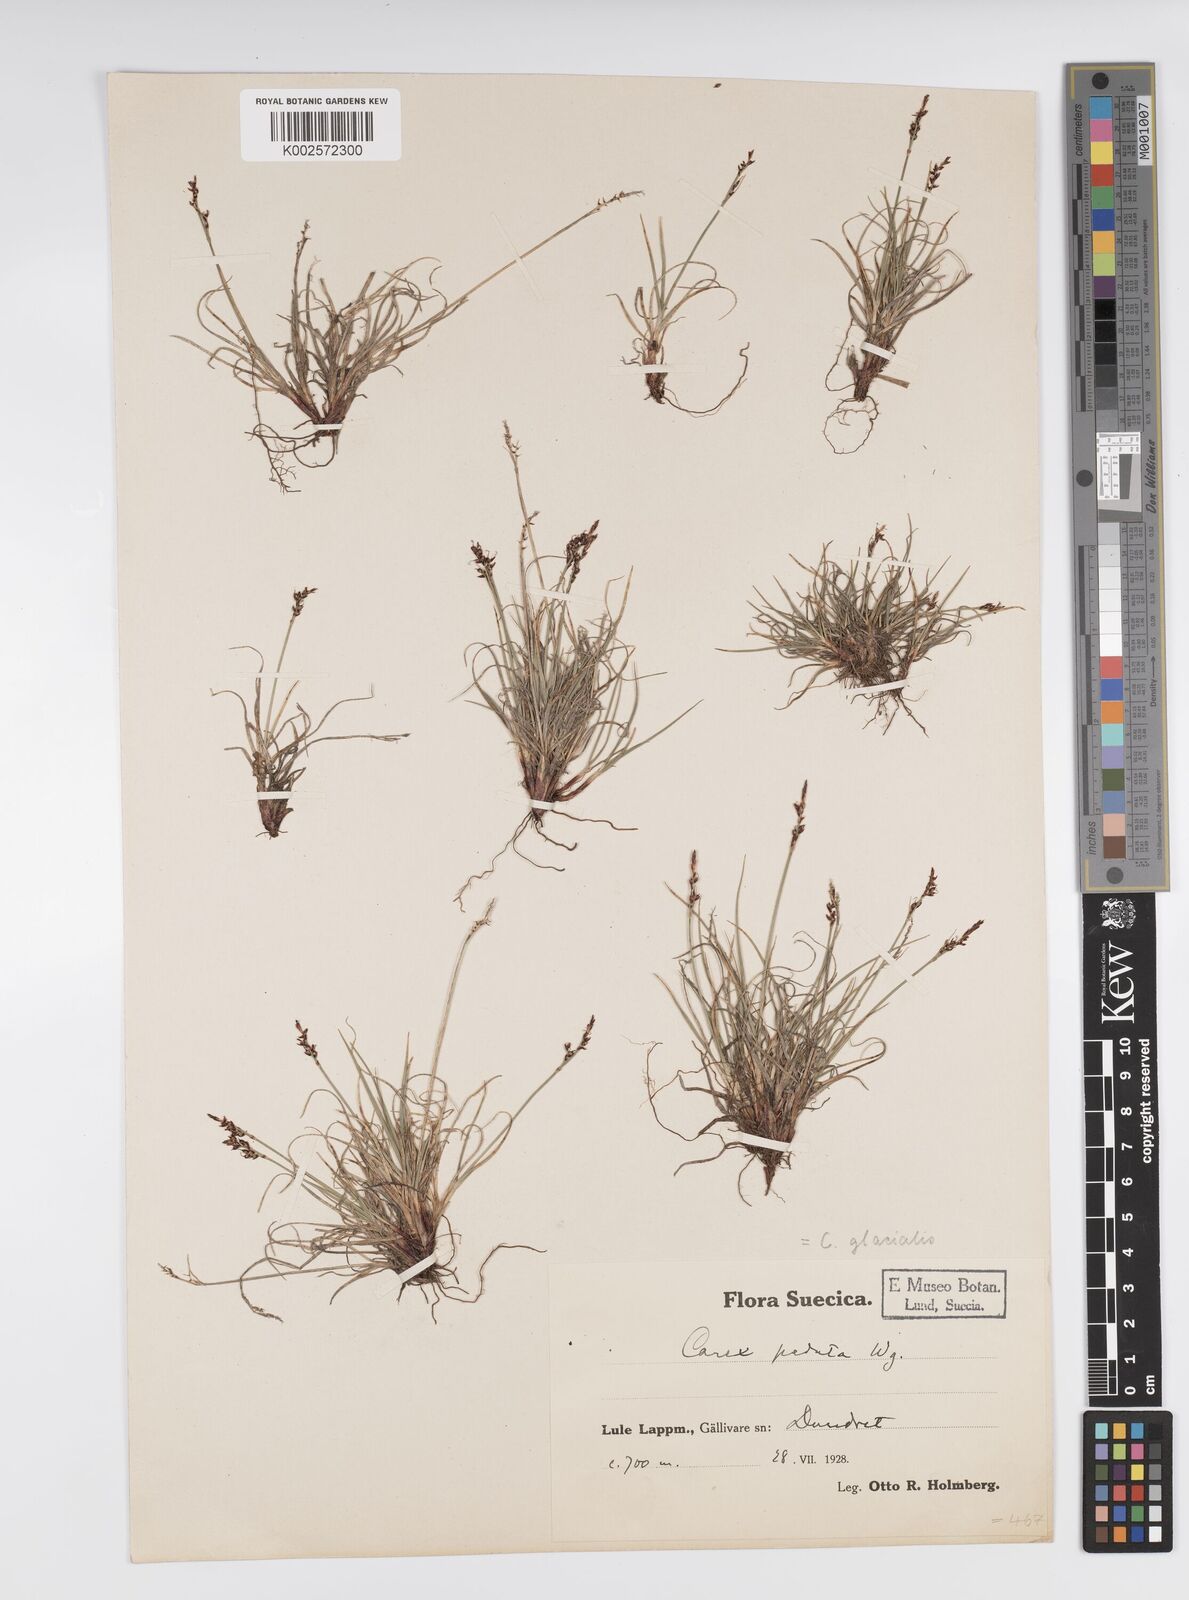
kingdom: Plantae
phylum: Tracheophyta
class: Liliopsida
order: Poales
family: Cyperaceae
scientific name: Cyperaceae
